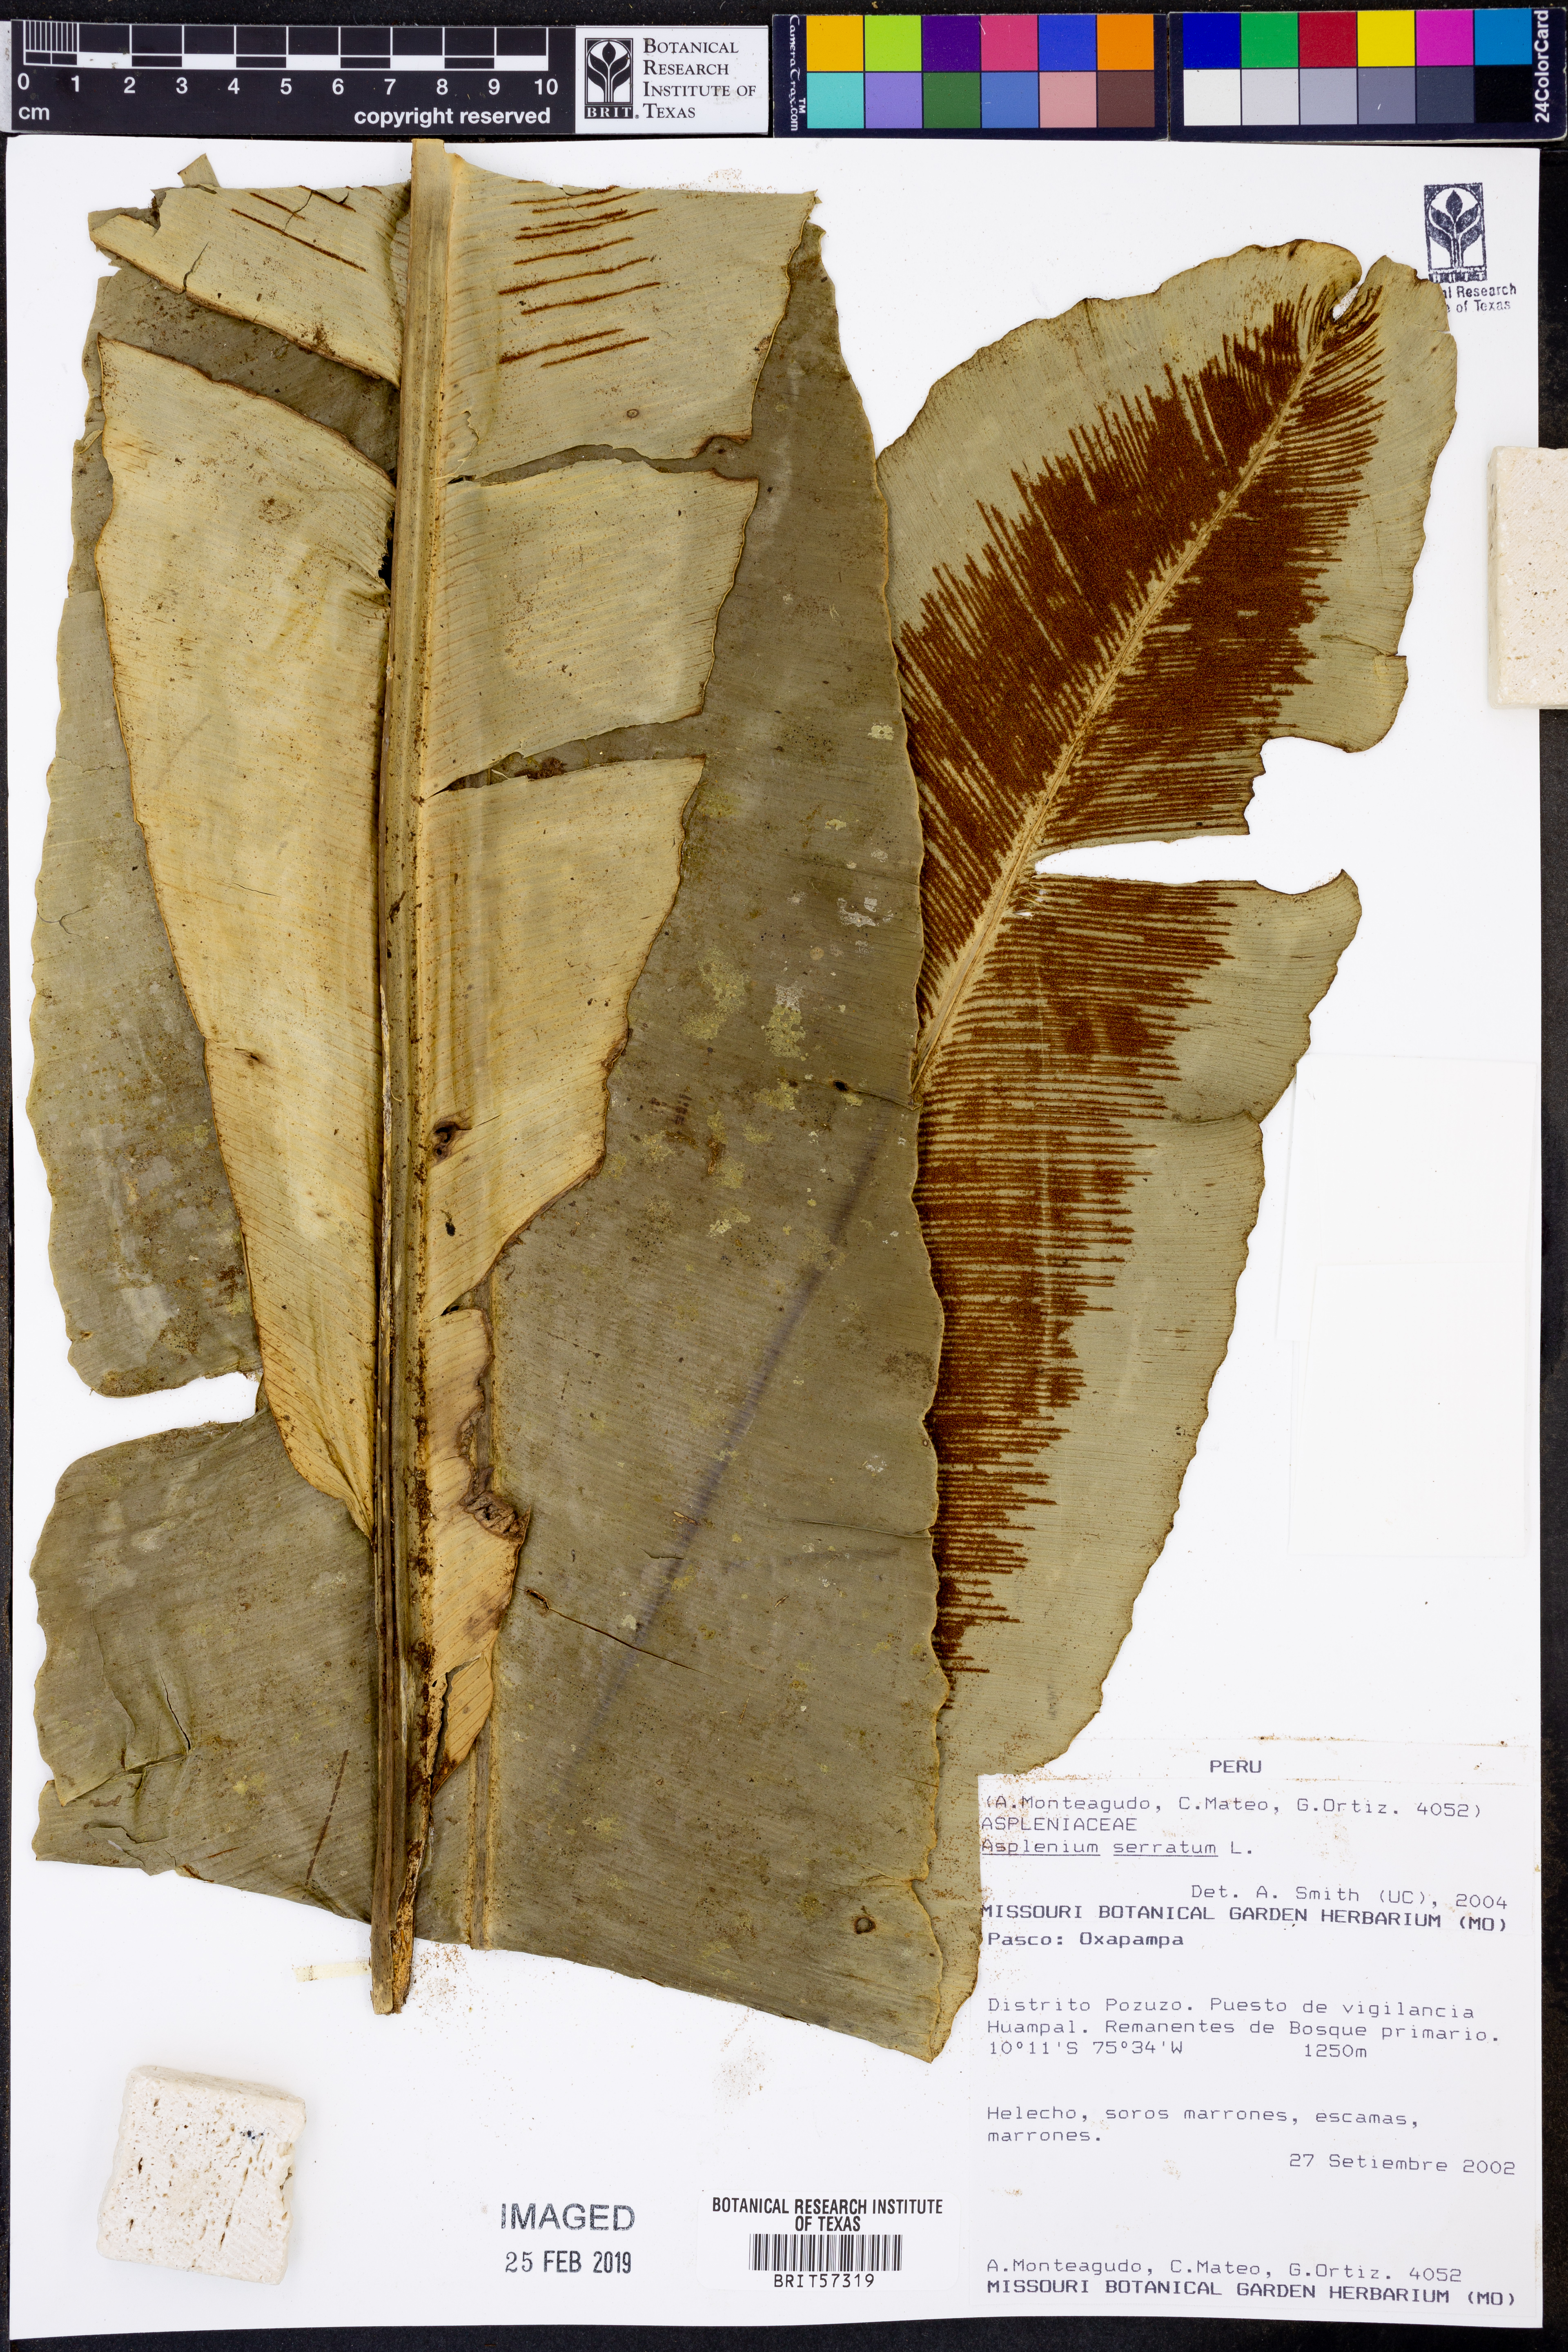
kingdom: Plantae
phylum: Tracheophyta
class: Polypodiopsida
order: Polypodiales
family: Aspleniaceae
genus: Asplenium
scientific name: Asplenium serratum
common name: Wild birdnest fern
